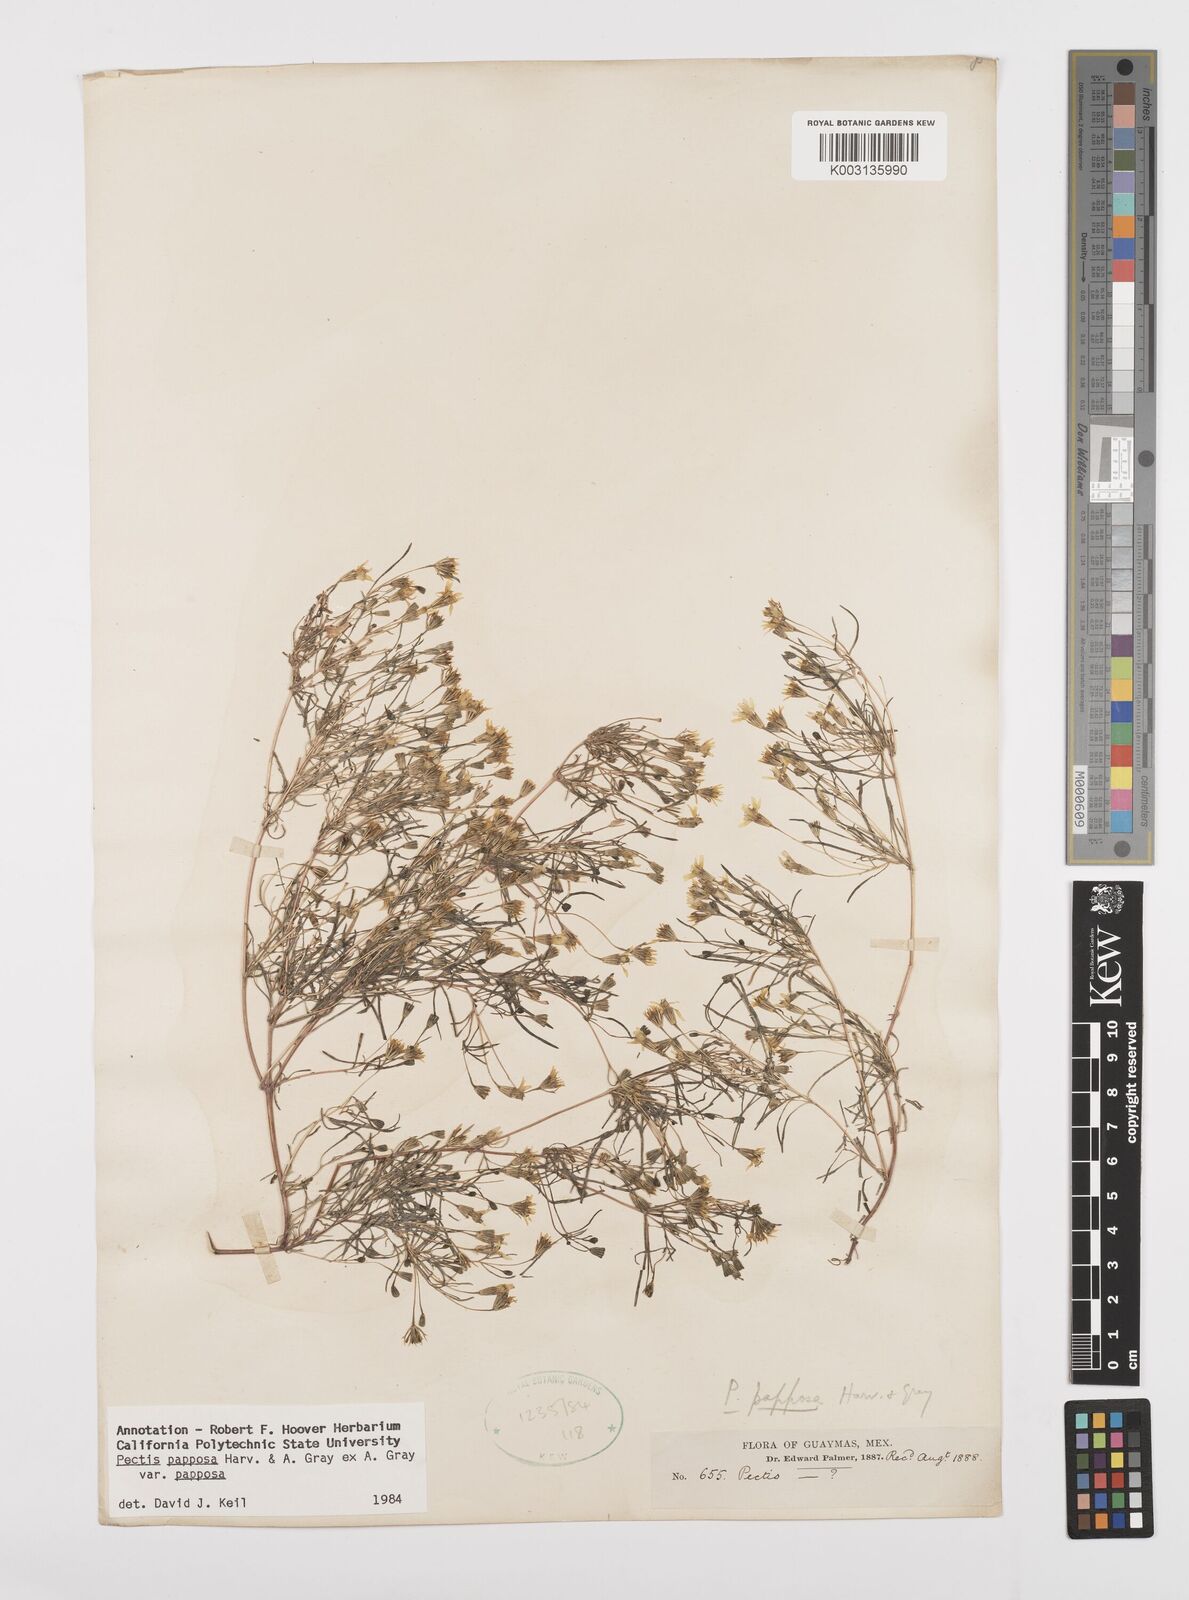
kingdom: Plantae
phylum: Tracheophyta
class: Magnoliopsida
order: Asterales
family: Asteraceae
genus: Pectis
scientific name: Pectis papposa
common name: Many-bristle chinchweed
